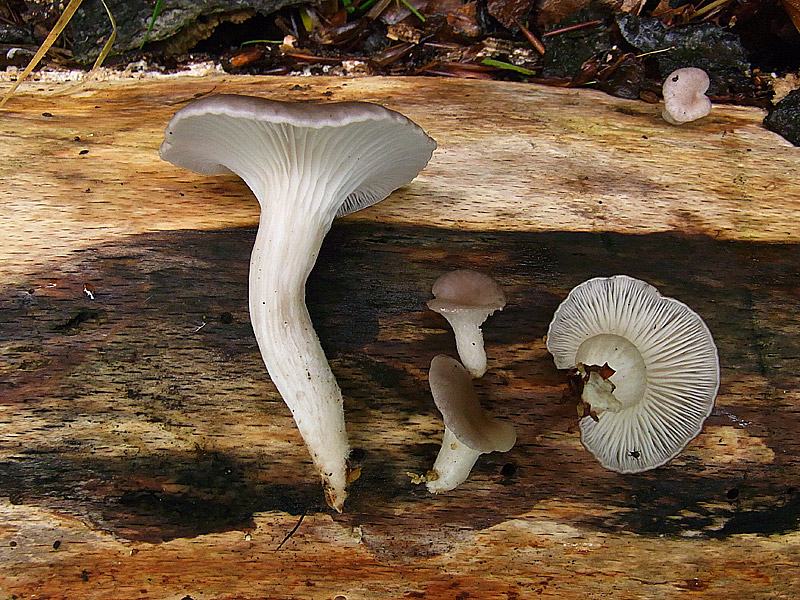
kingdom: Fungi
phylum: Basidiomycota
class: Agaricomycetes
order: Agaricales
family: Pleurotaceae
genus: Pleurotus
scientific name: Pleurotus ostreatus
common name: Oyster mushroom
